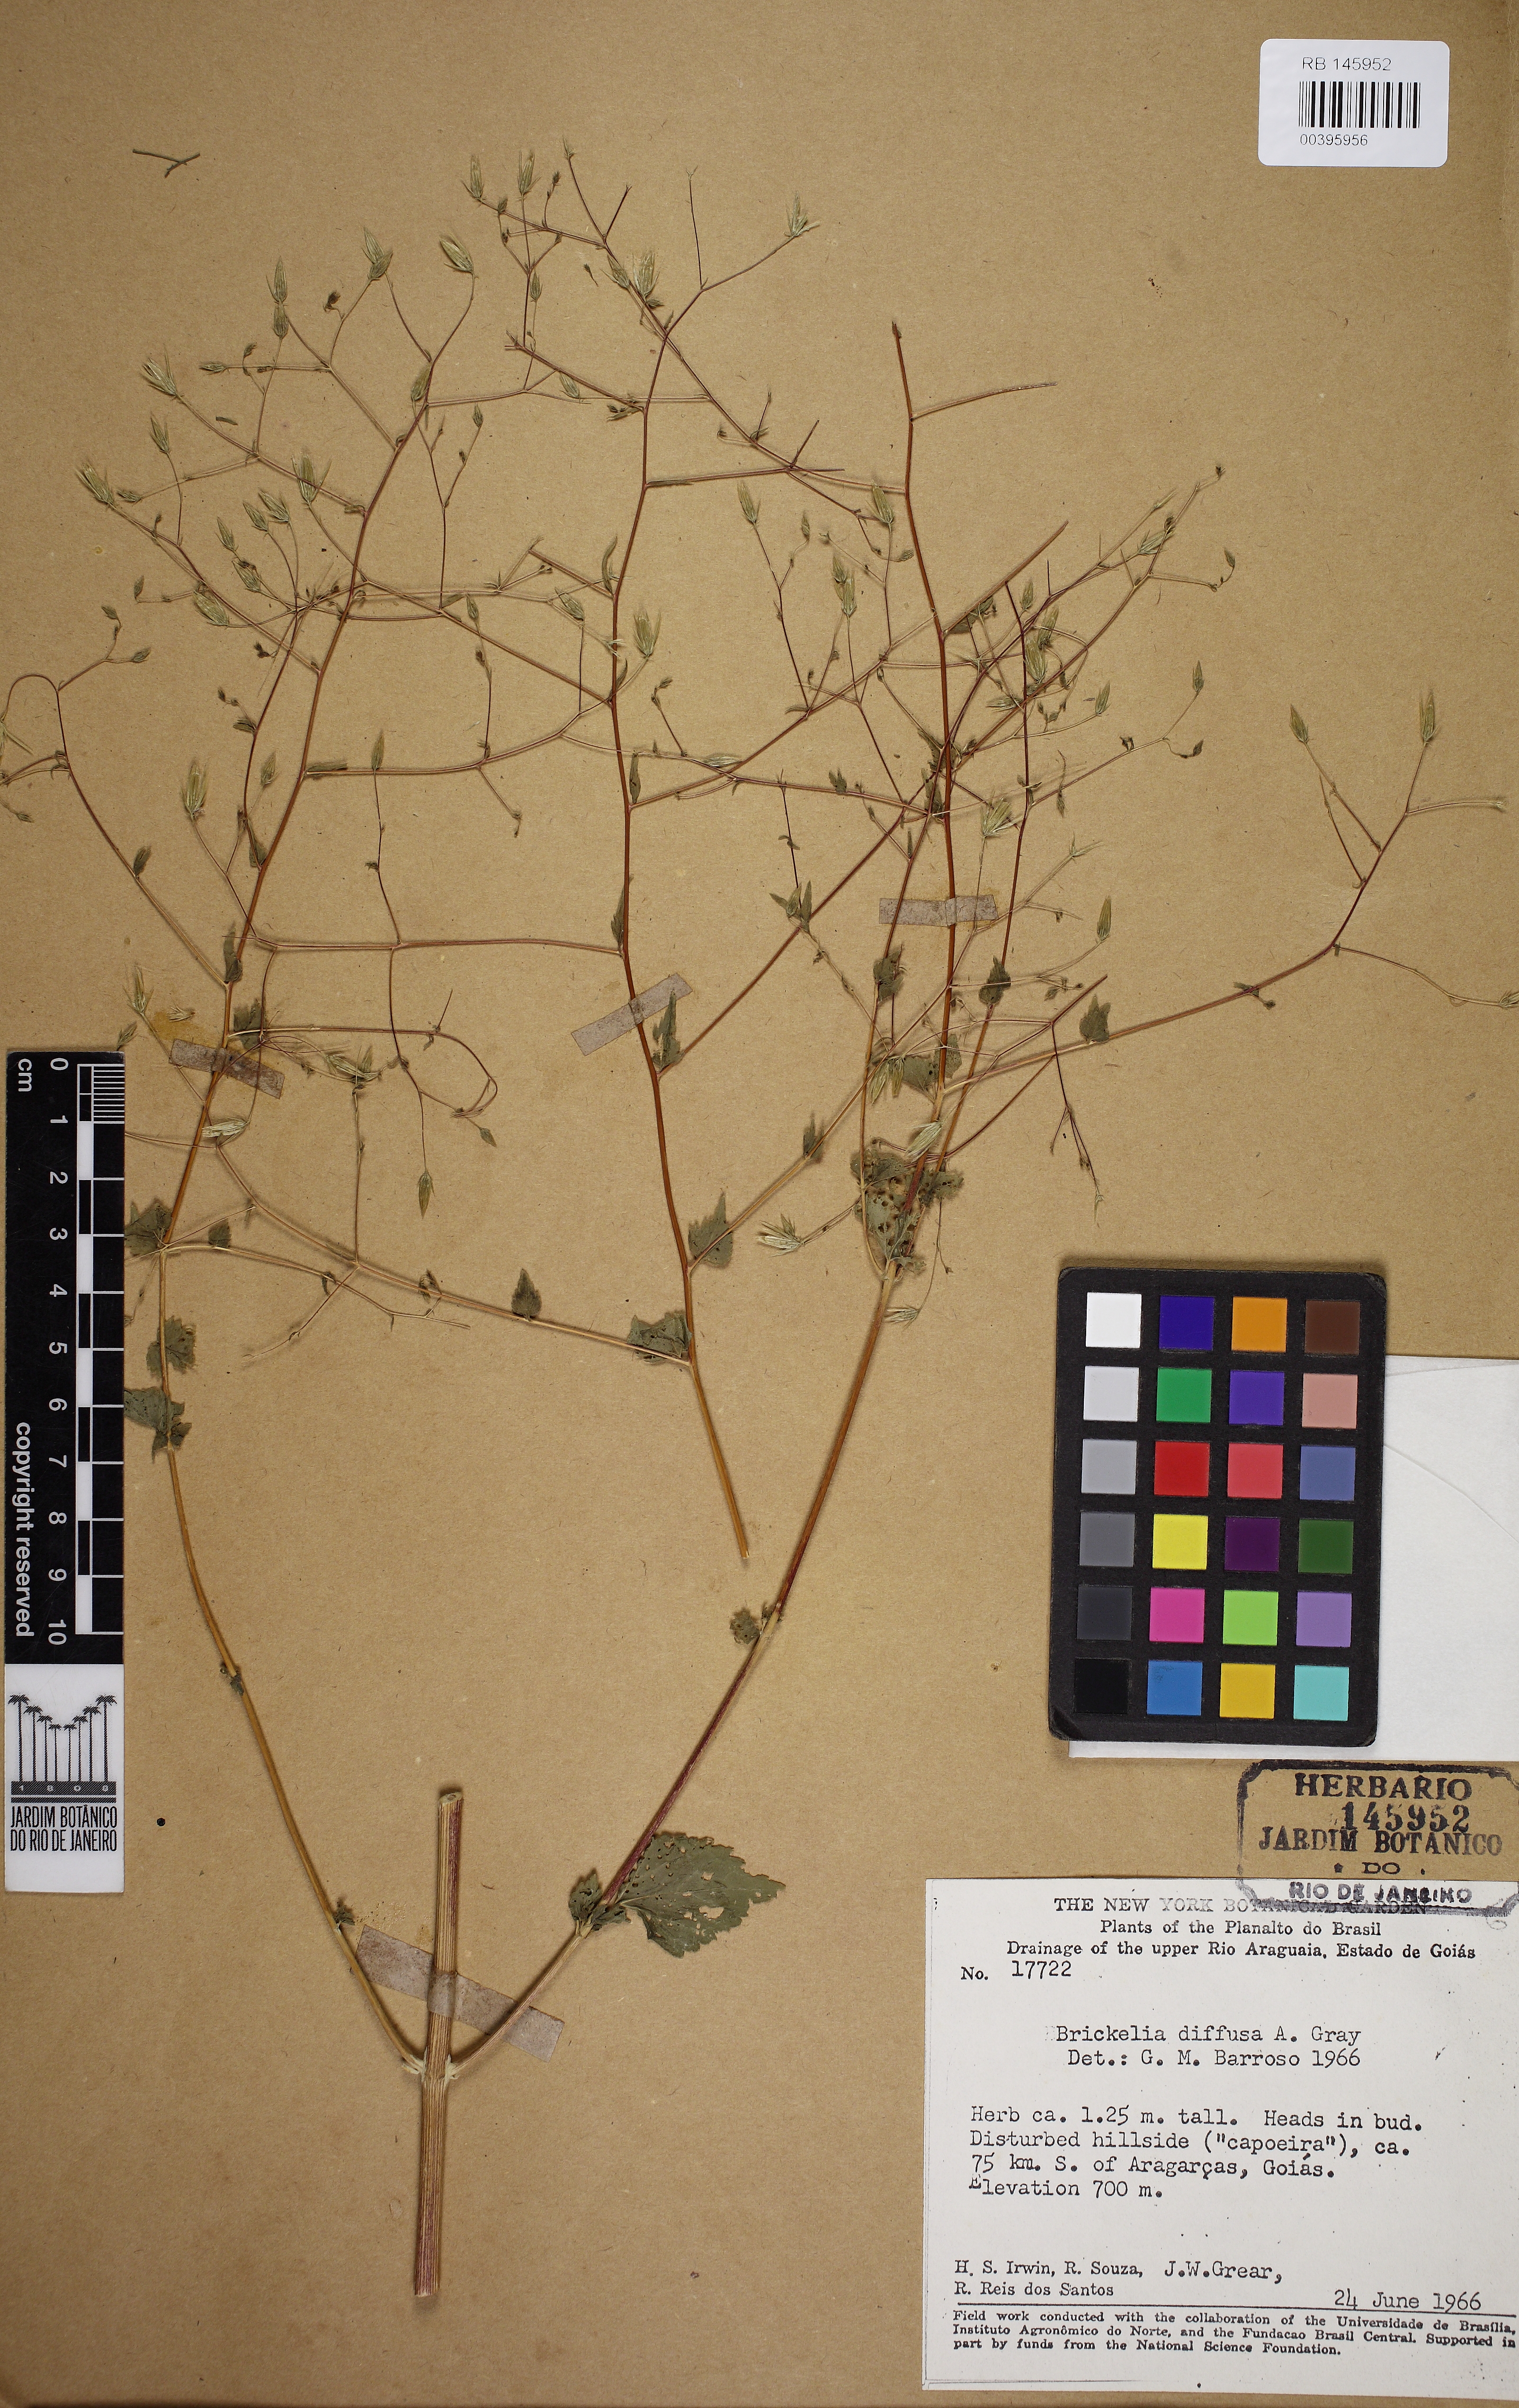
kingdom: Plantae
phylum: Tracheophyta
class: Magnoliopsida
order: Asterales
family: Asteraceae
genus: Brickellia
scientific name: Brickellia diffusa
